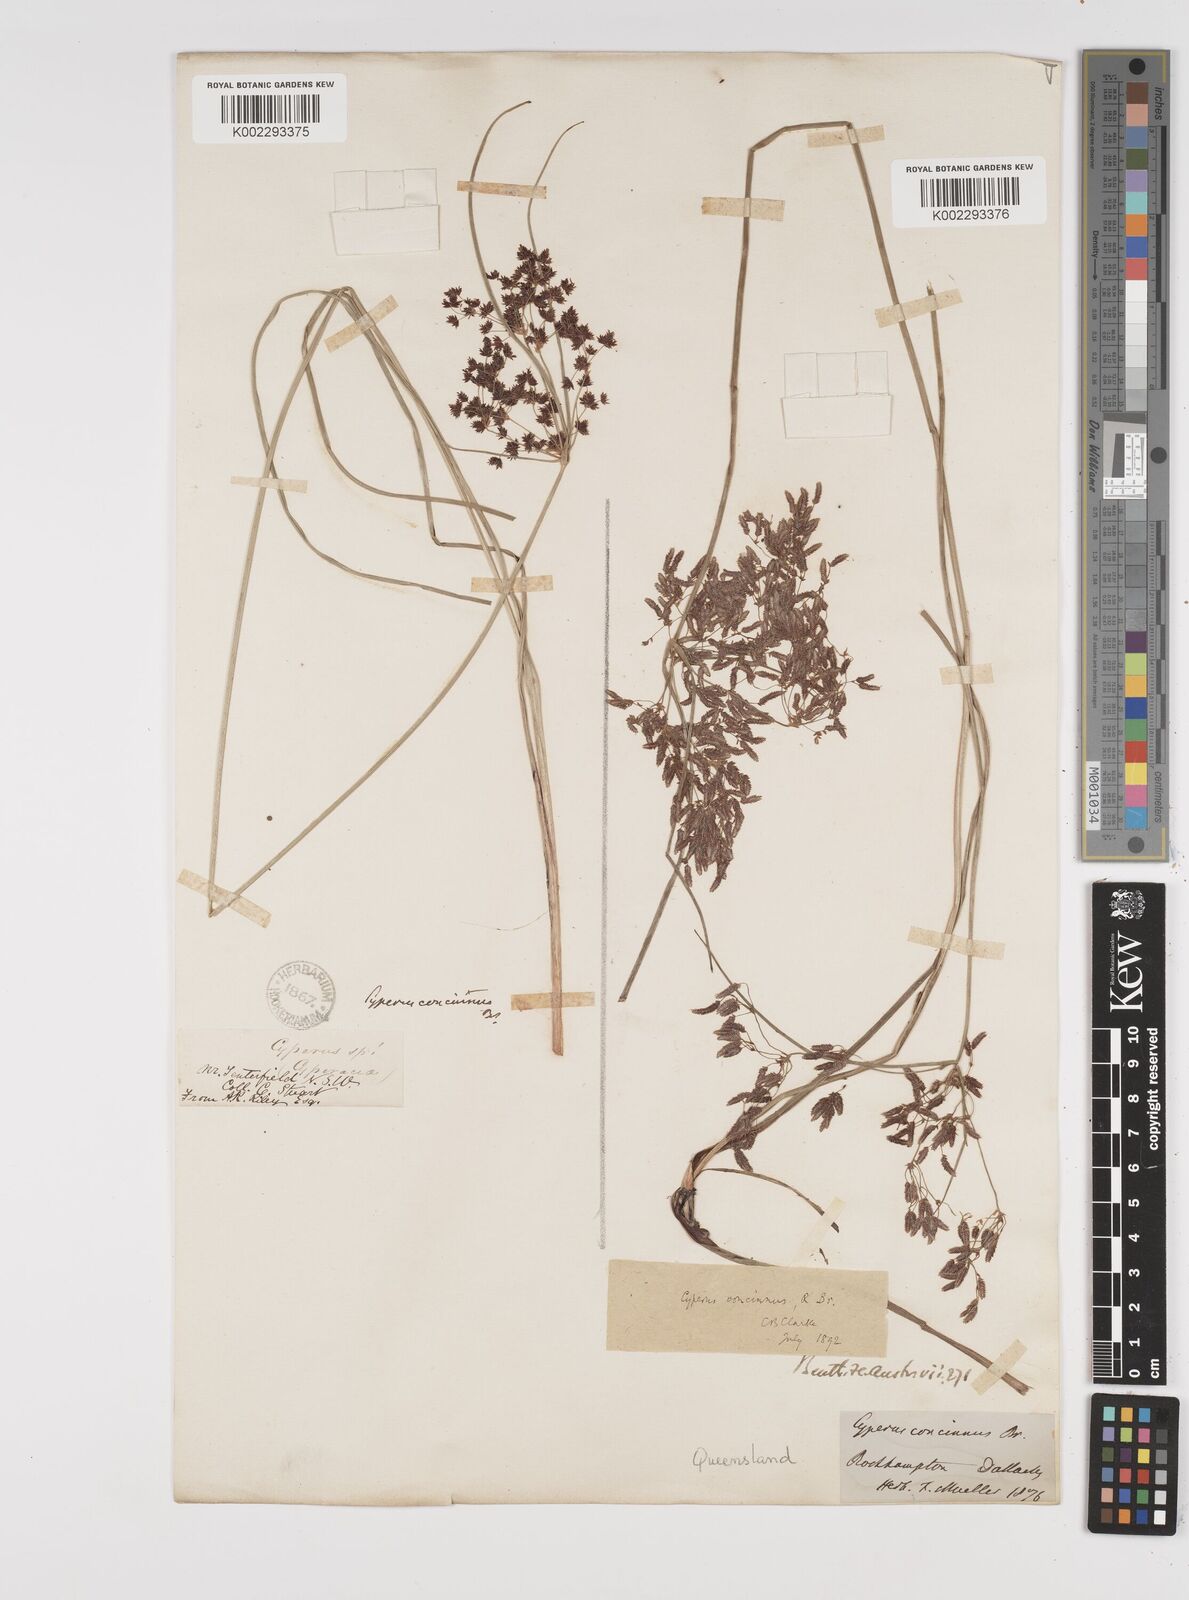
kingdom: Plantae
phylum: Tracheophyta
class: Liliopsida
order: Poales
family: Cyperaceae
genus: Cyperus
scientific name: Cyperus concinnus
